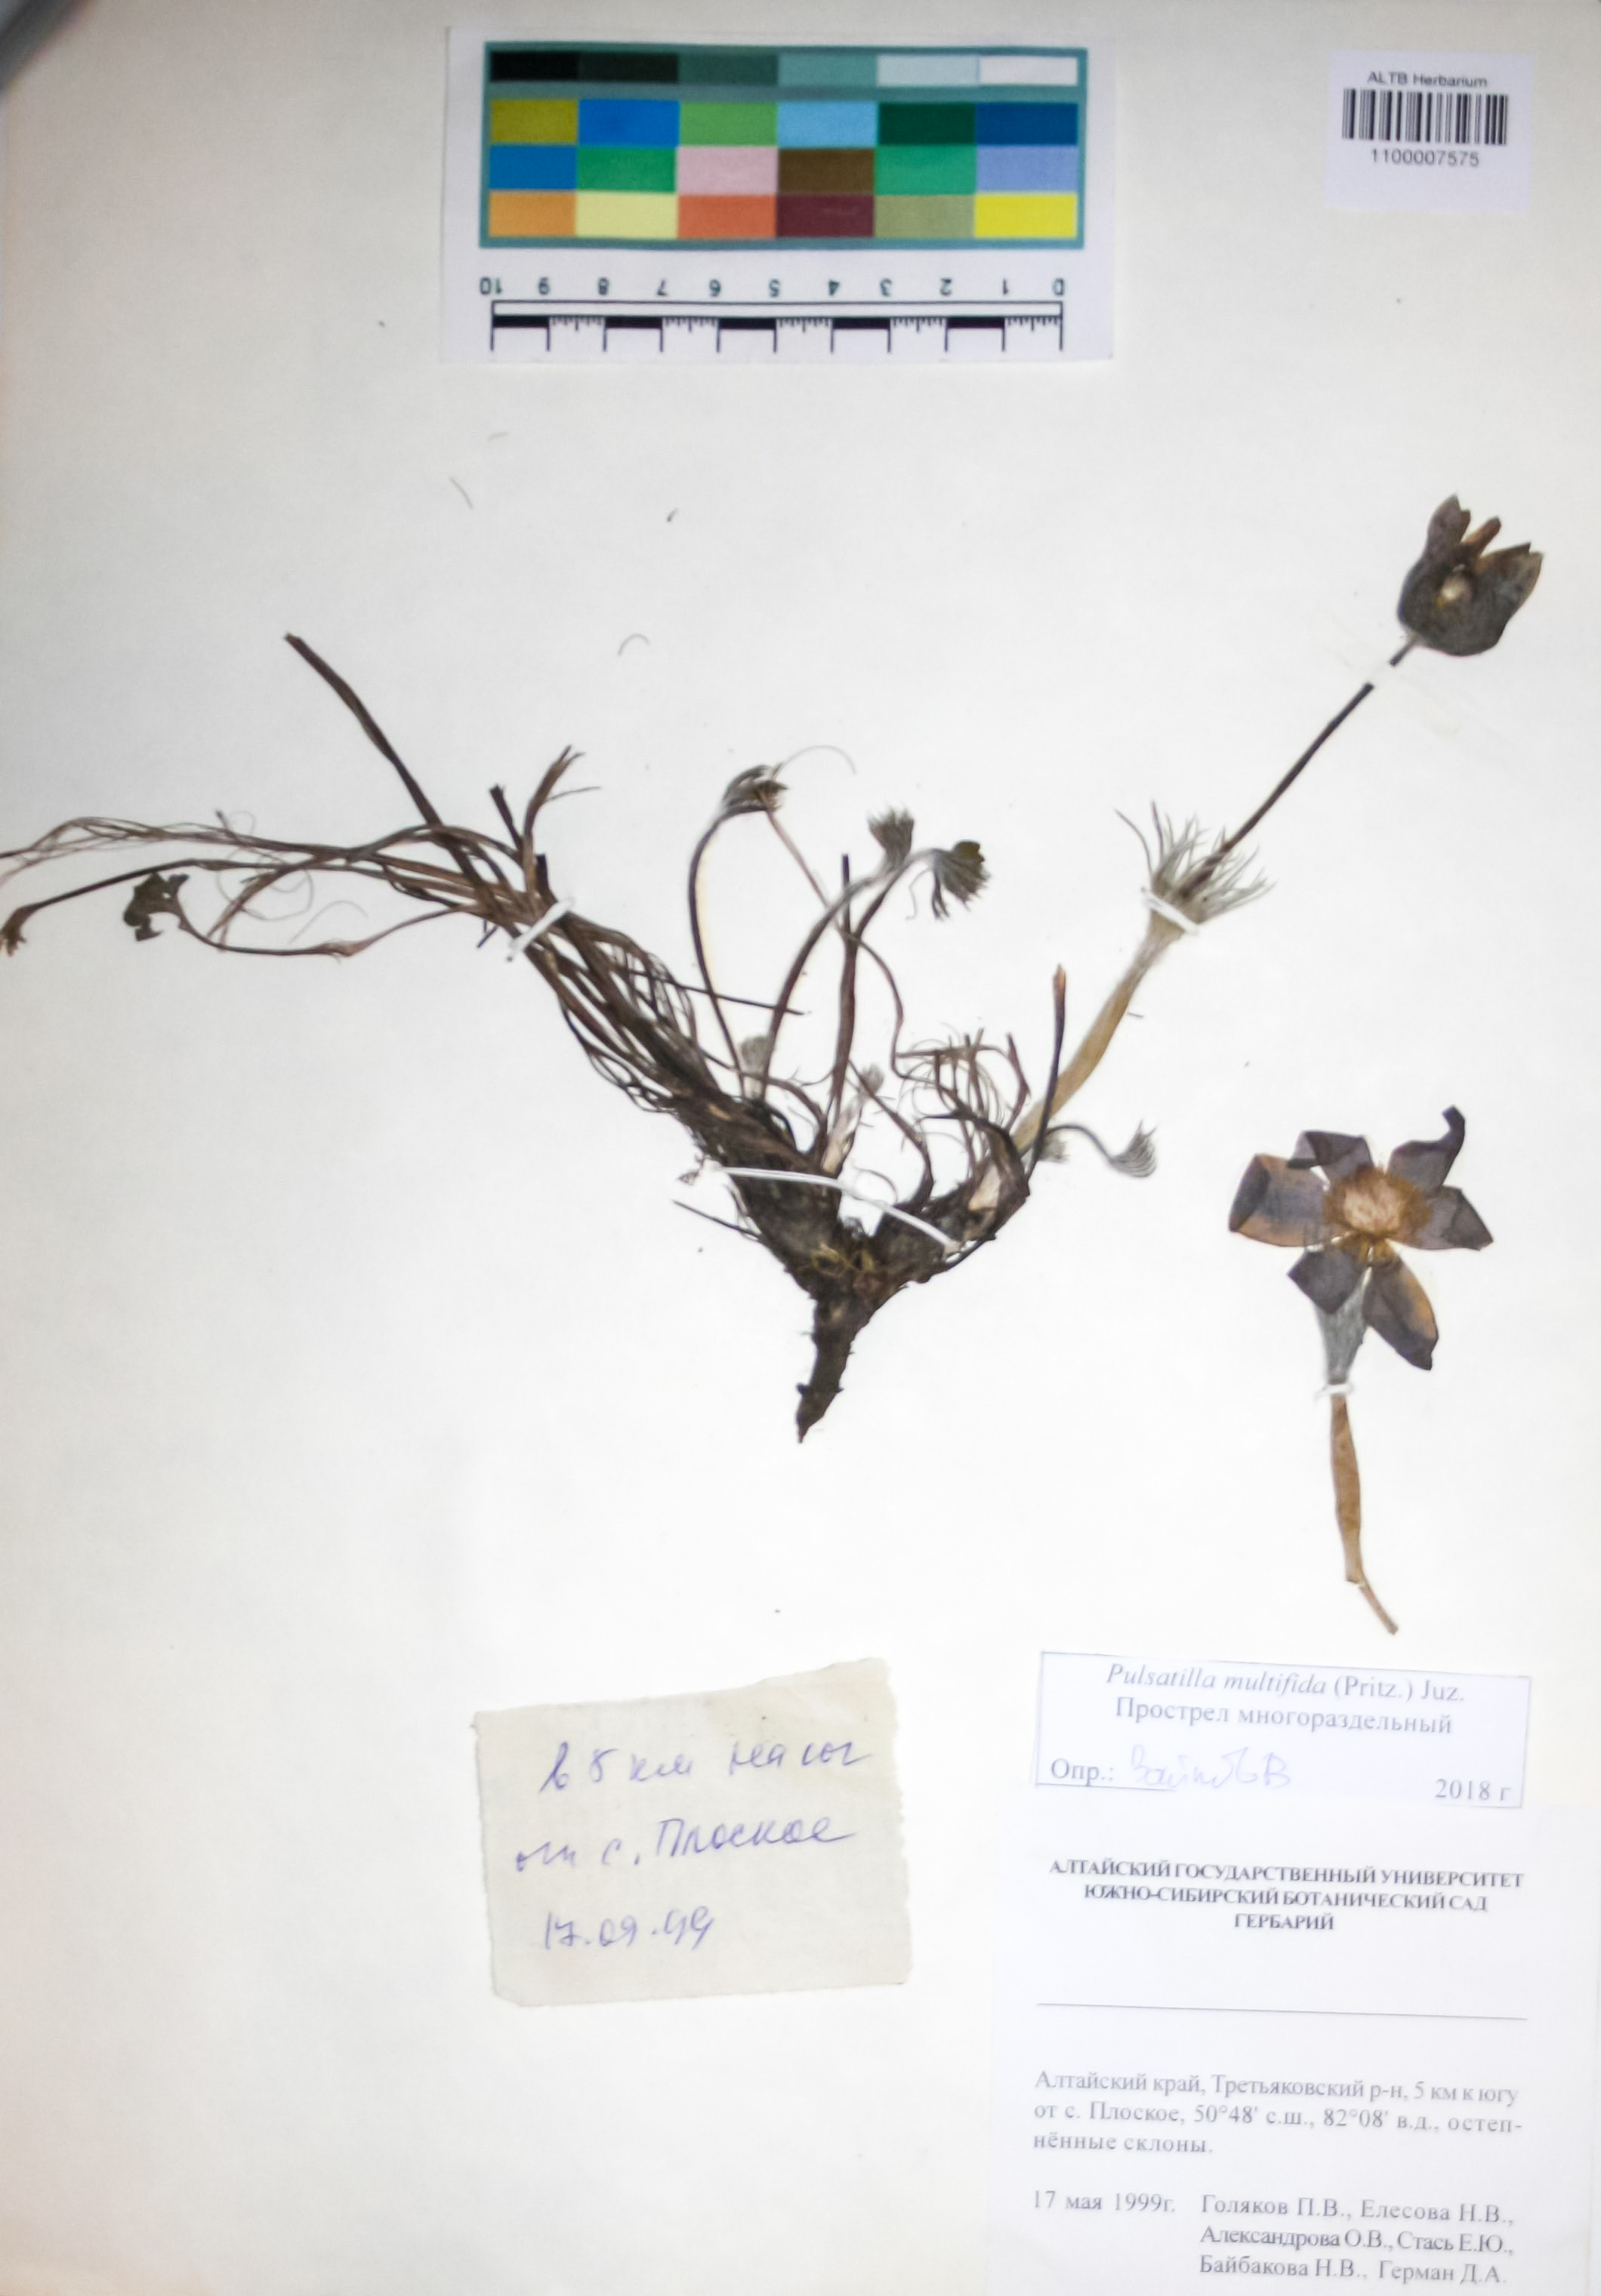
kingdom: Plantae
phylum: Tracheophyta
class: Magnoliopsida
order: Ranunculales
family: Ranunculaceae
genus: Pulsatilla
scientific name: Pulsatilla patens
